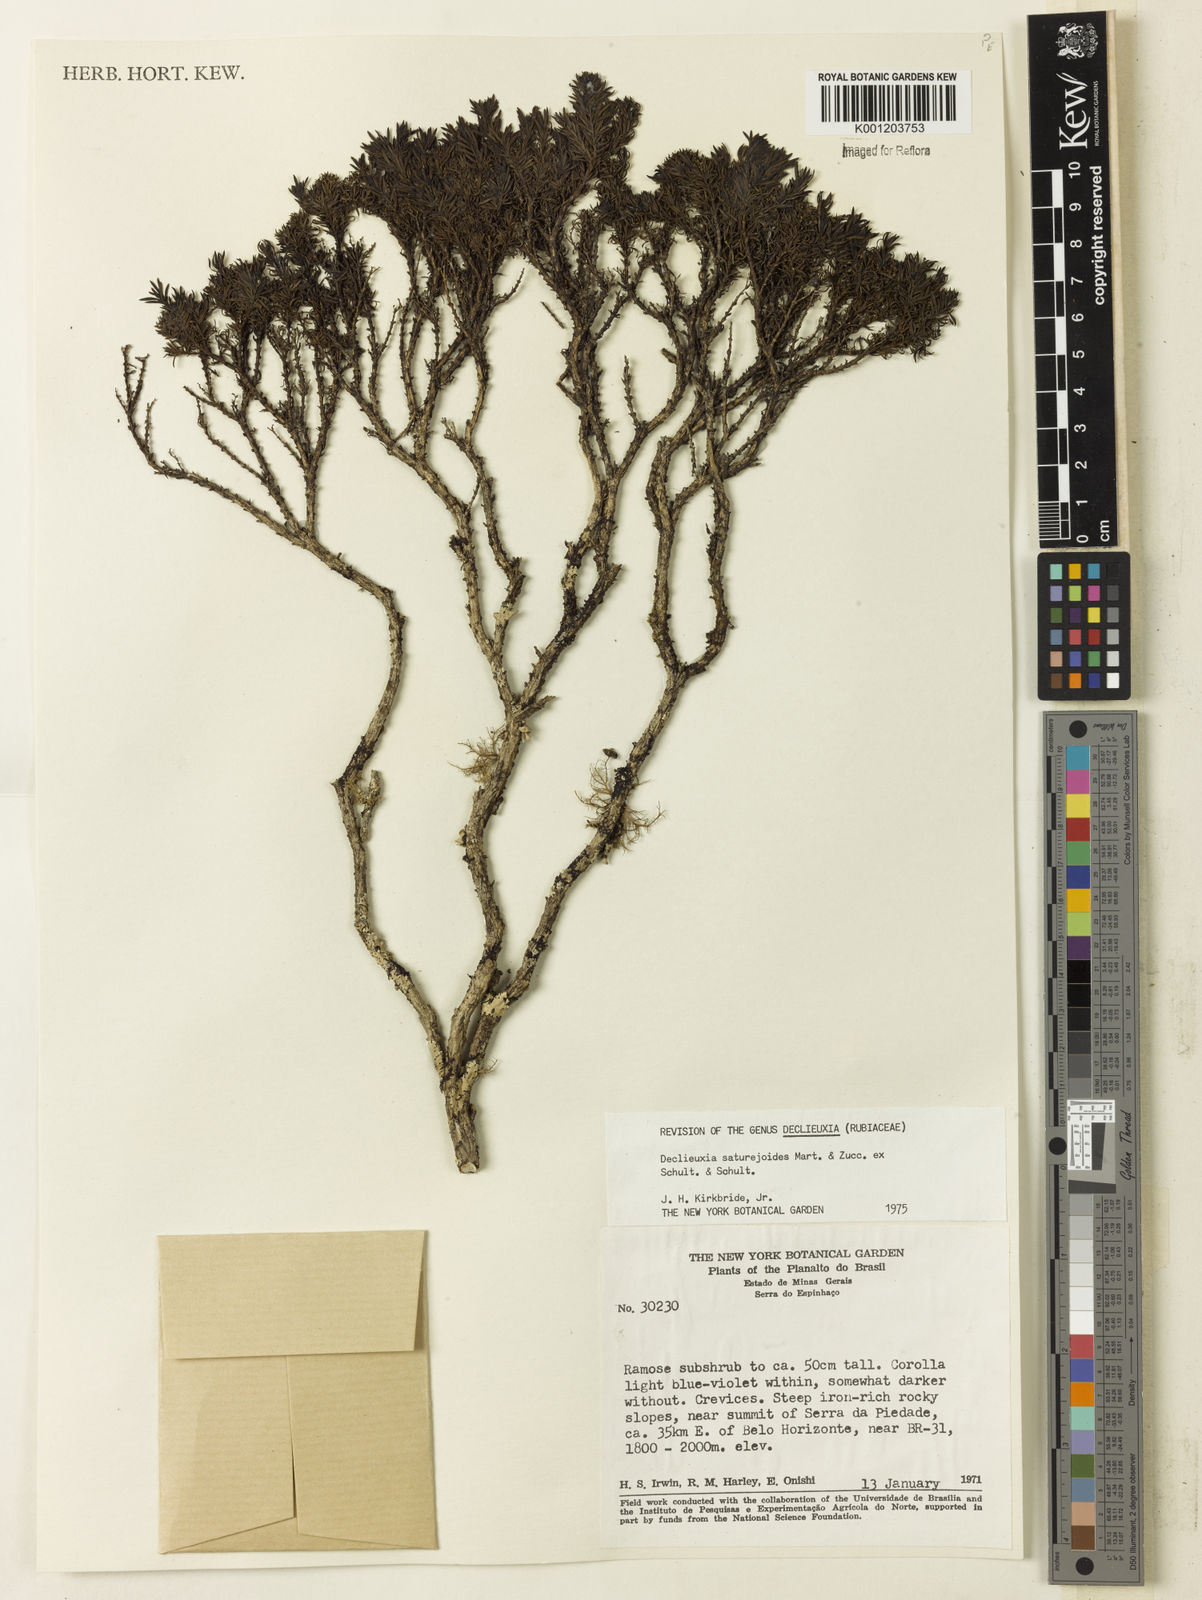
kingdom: Plantae
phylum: Tracheophyta
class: Magnoliopsida
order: Gentianales
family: Rubiaceae
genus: Declieuxia
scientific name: Declieuxia
